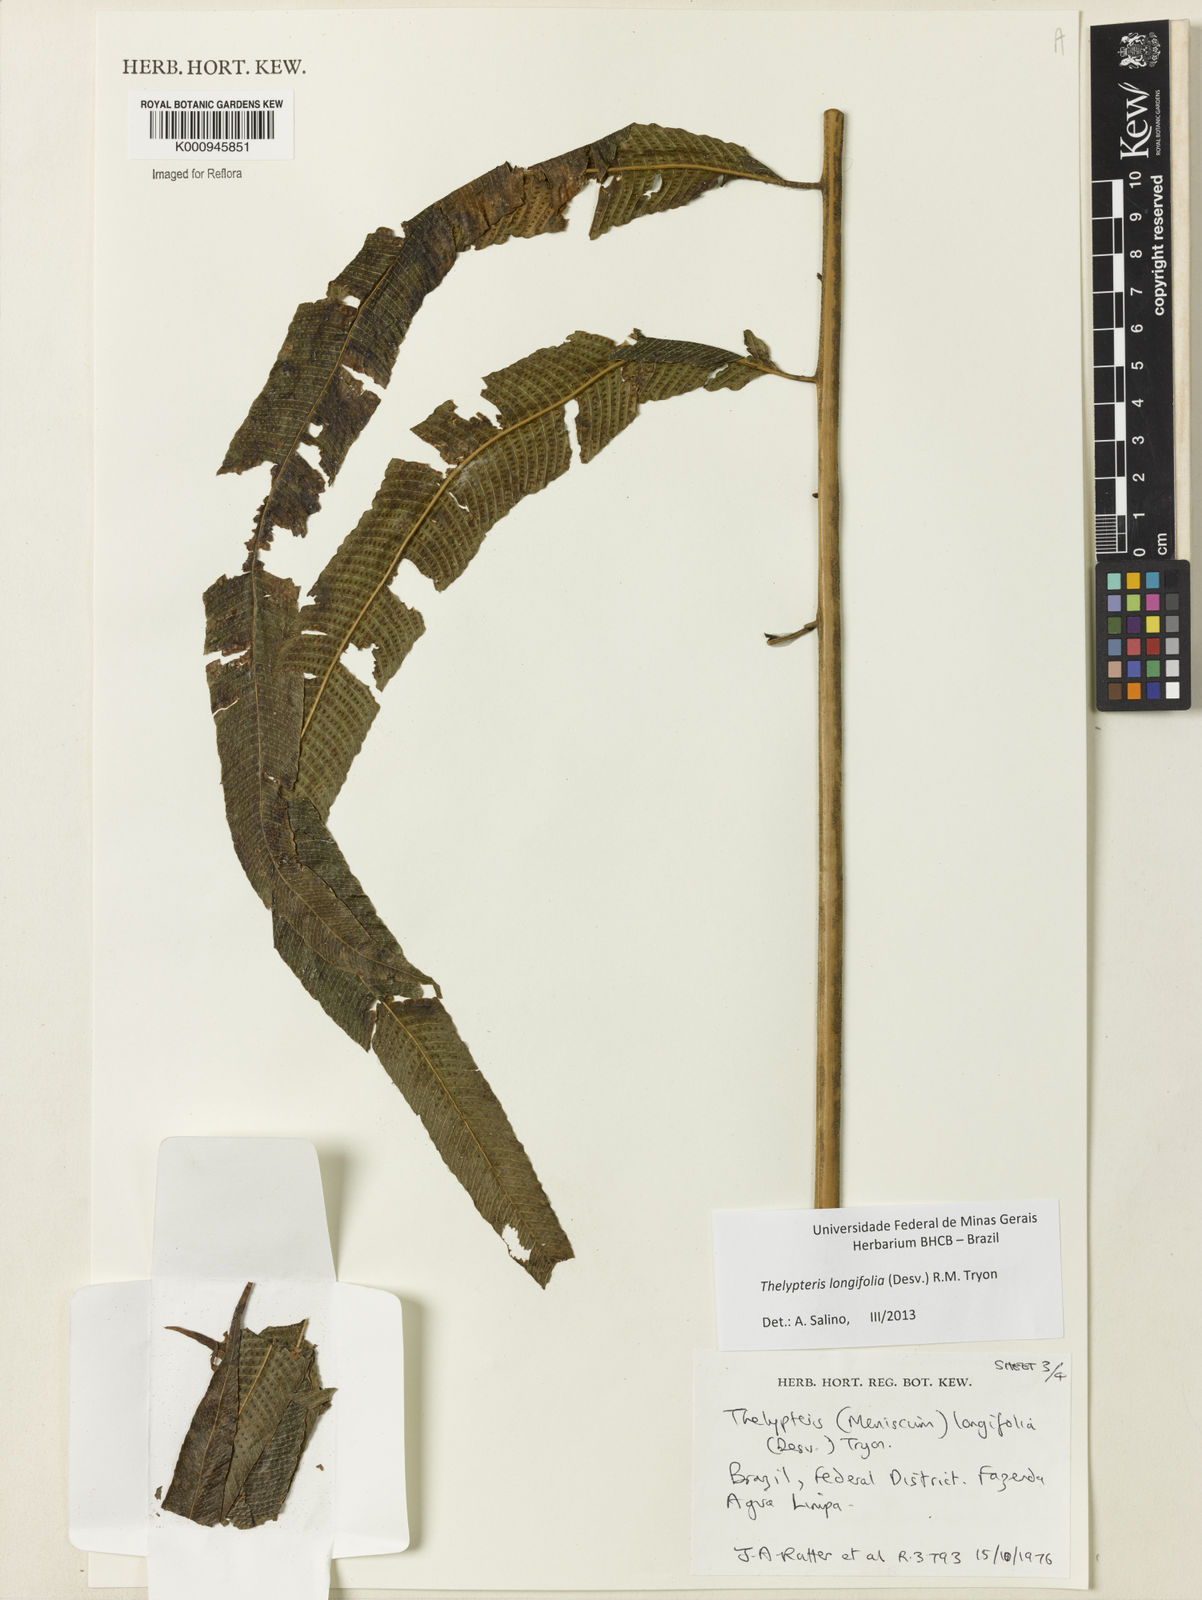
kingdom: Plantae
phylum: Tracheophyta
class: Polypodiopsida
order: Polypodiales
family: Thelypteridaceae
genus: Meniscium
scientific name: Meniscium longifolium
